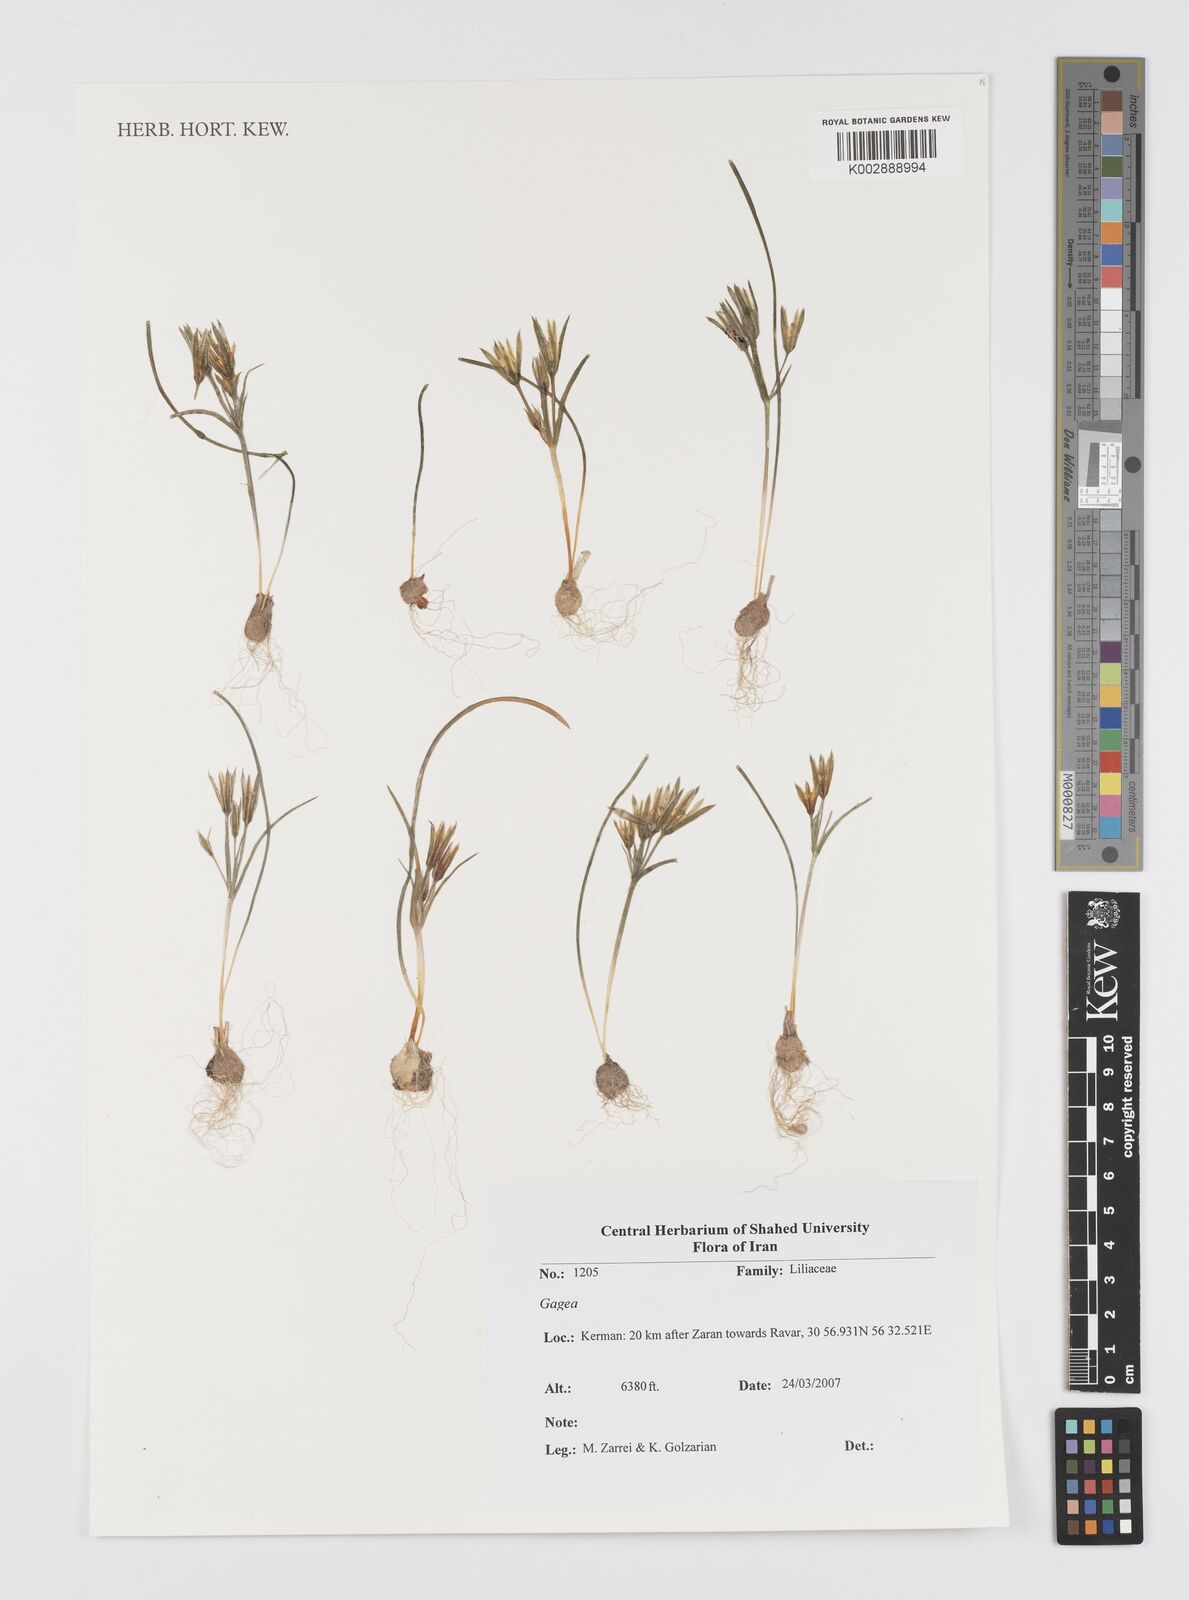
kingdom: Plantae
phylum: Tracheophyta
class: Liliopsida
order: Liliales
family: Liliaceae
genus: Gagea
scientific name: Gagea
